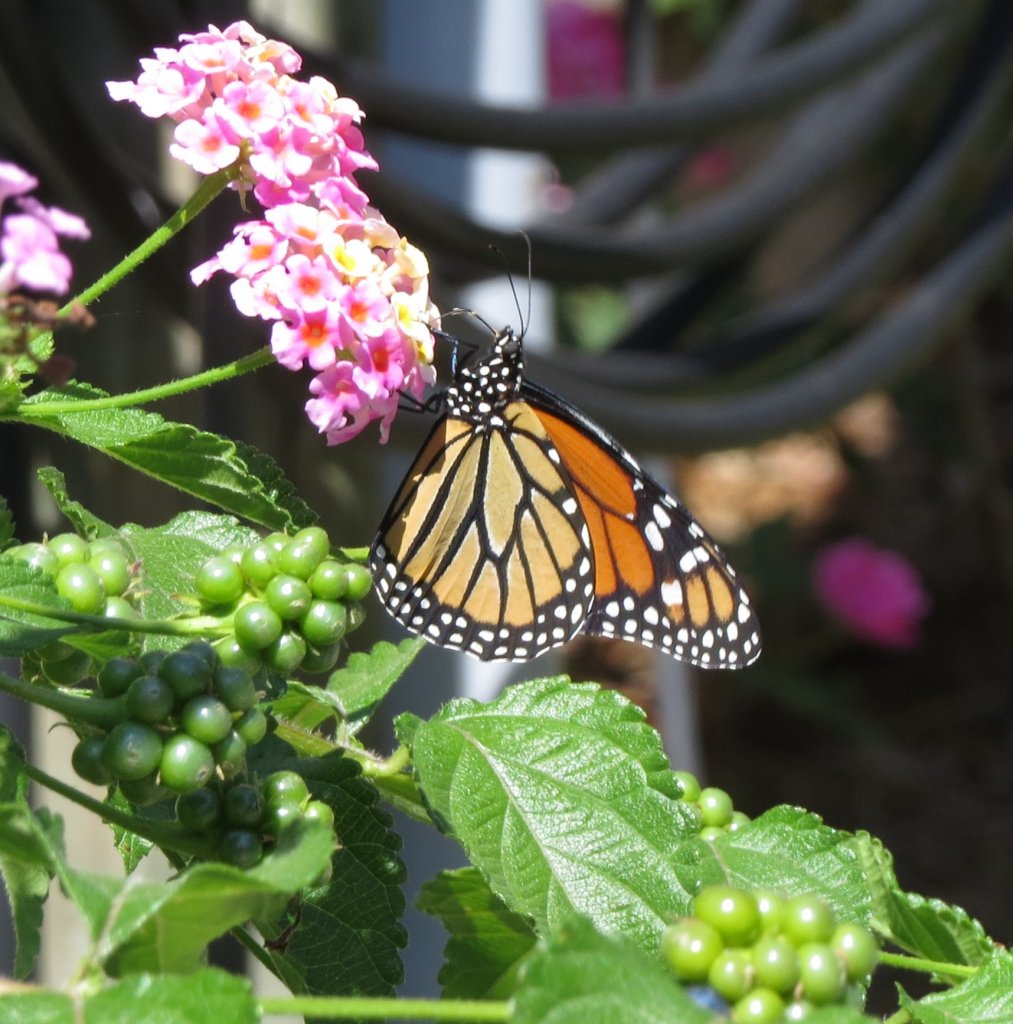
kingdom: Animalia
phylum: Arthropoda
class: Insecta
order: Lepidoptera
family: Nymphalidae
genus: Danaus
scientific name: Danaus plexippus
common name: Monarch
